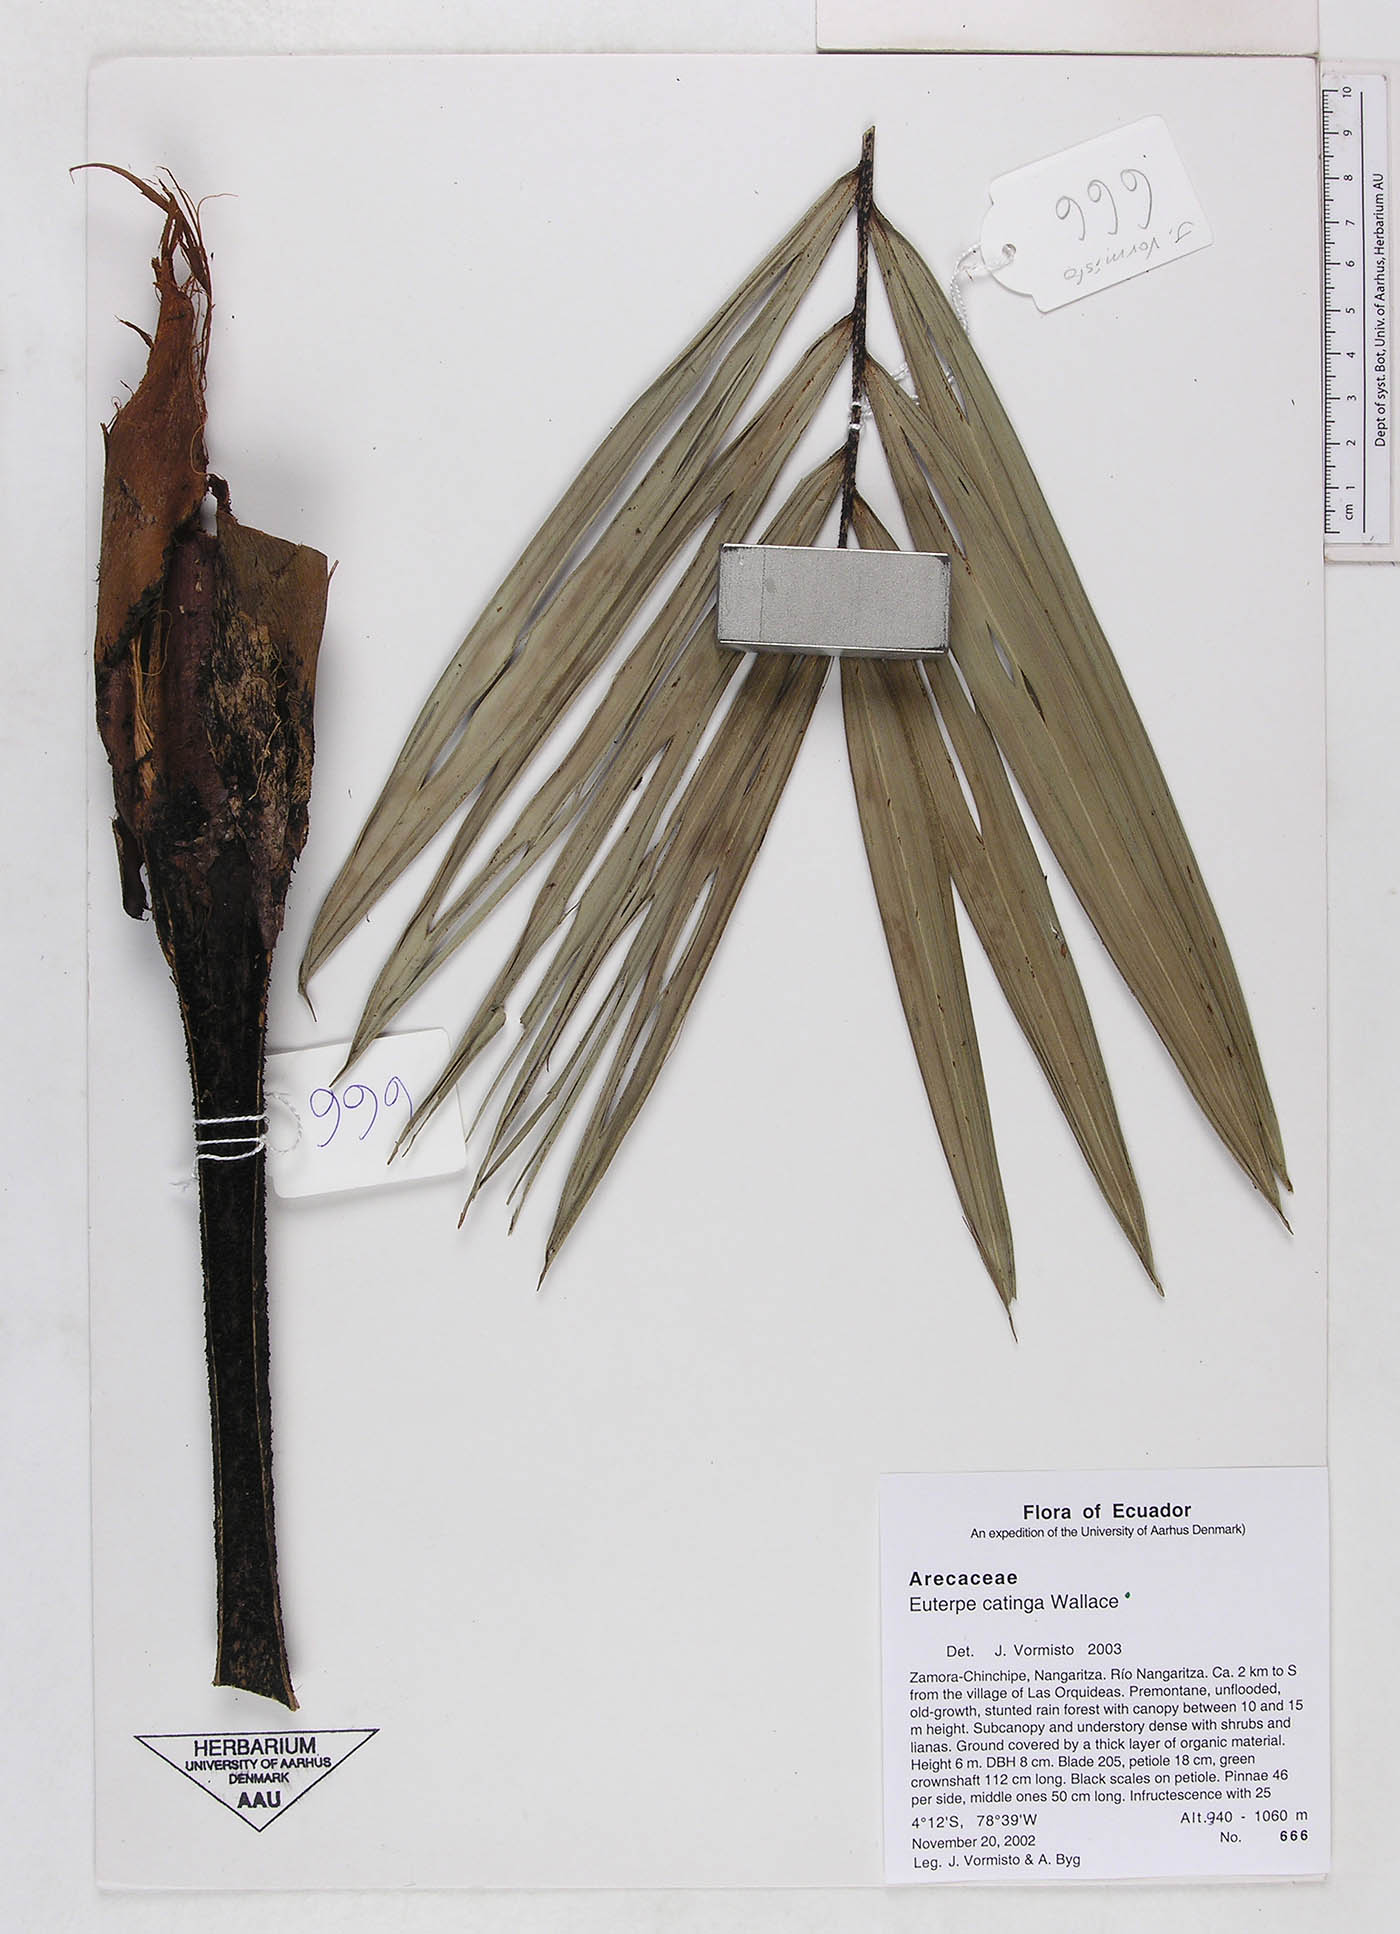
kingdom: Plantae
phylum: Tracheophyta
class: Liliopsida
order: Arecales
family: Arecaceae
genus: Euterpe
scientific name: Euterpe catinga
